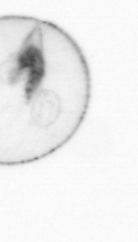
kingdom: Chromista
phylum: Myzozoa
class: Dinophyceae
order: Noctilucales
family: Noctilucaceae
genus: Noctiluca
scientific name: Noctiluca scintillans
